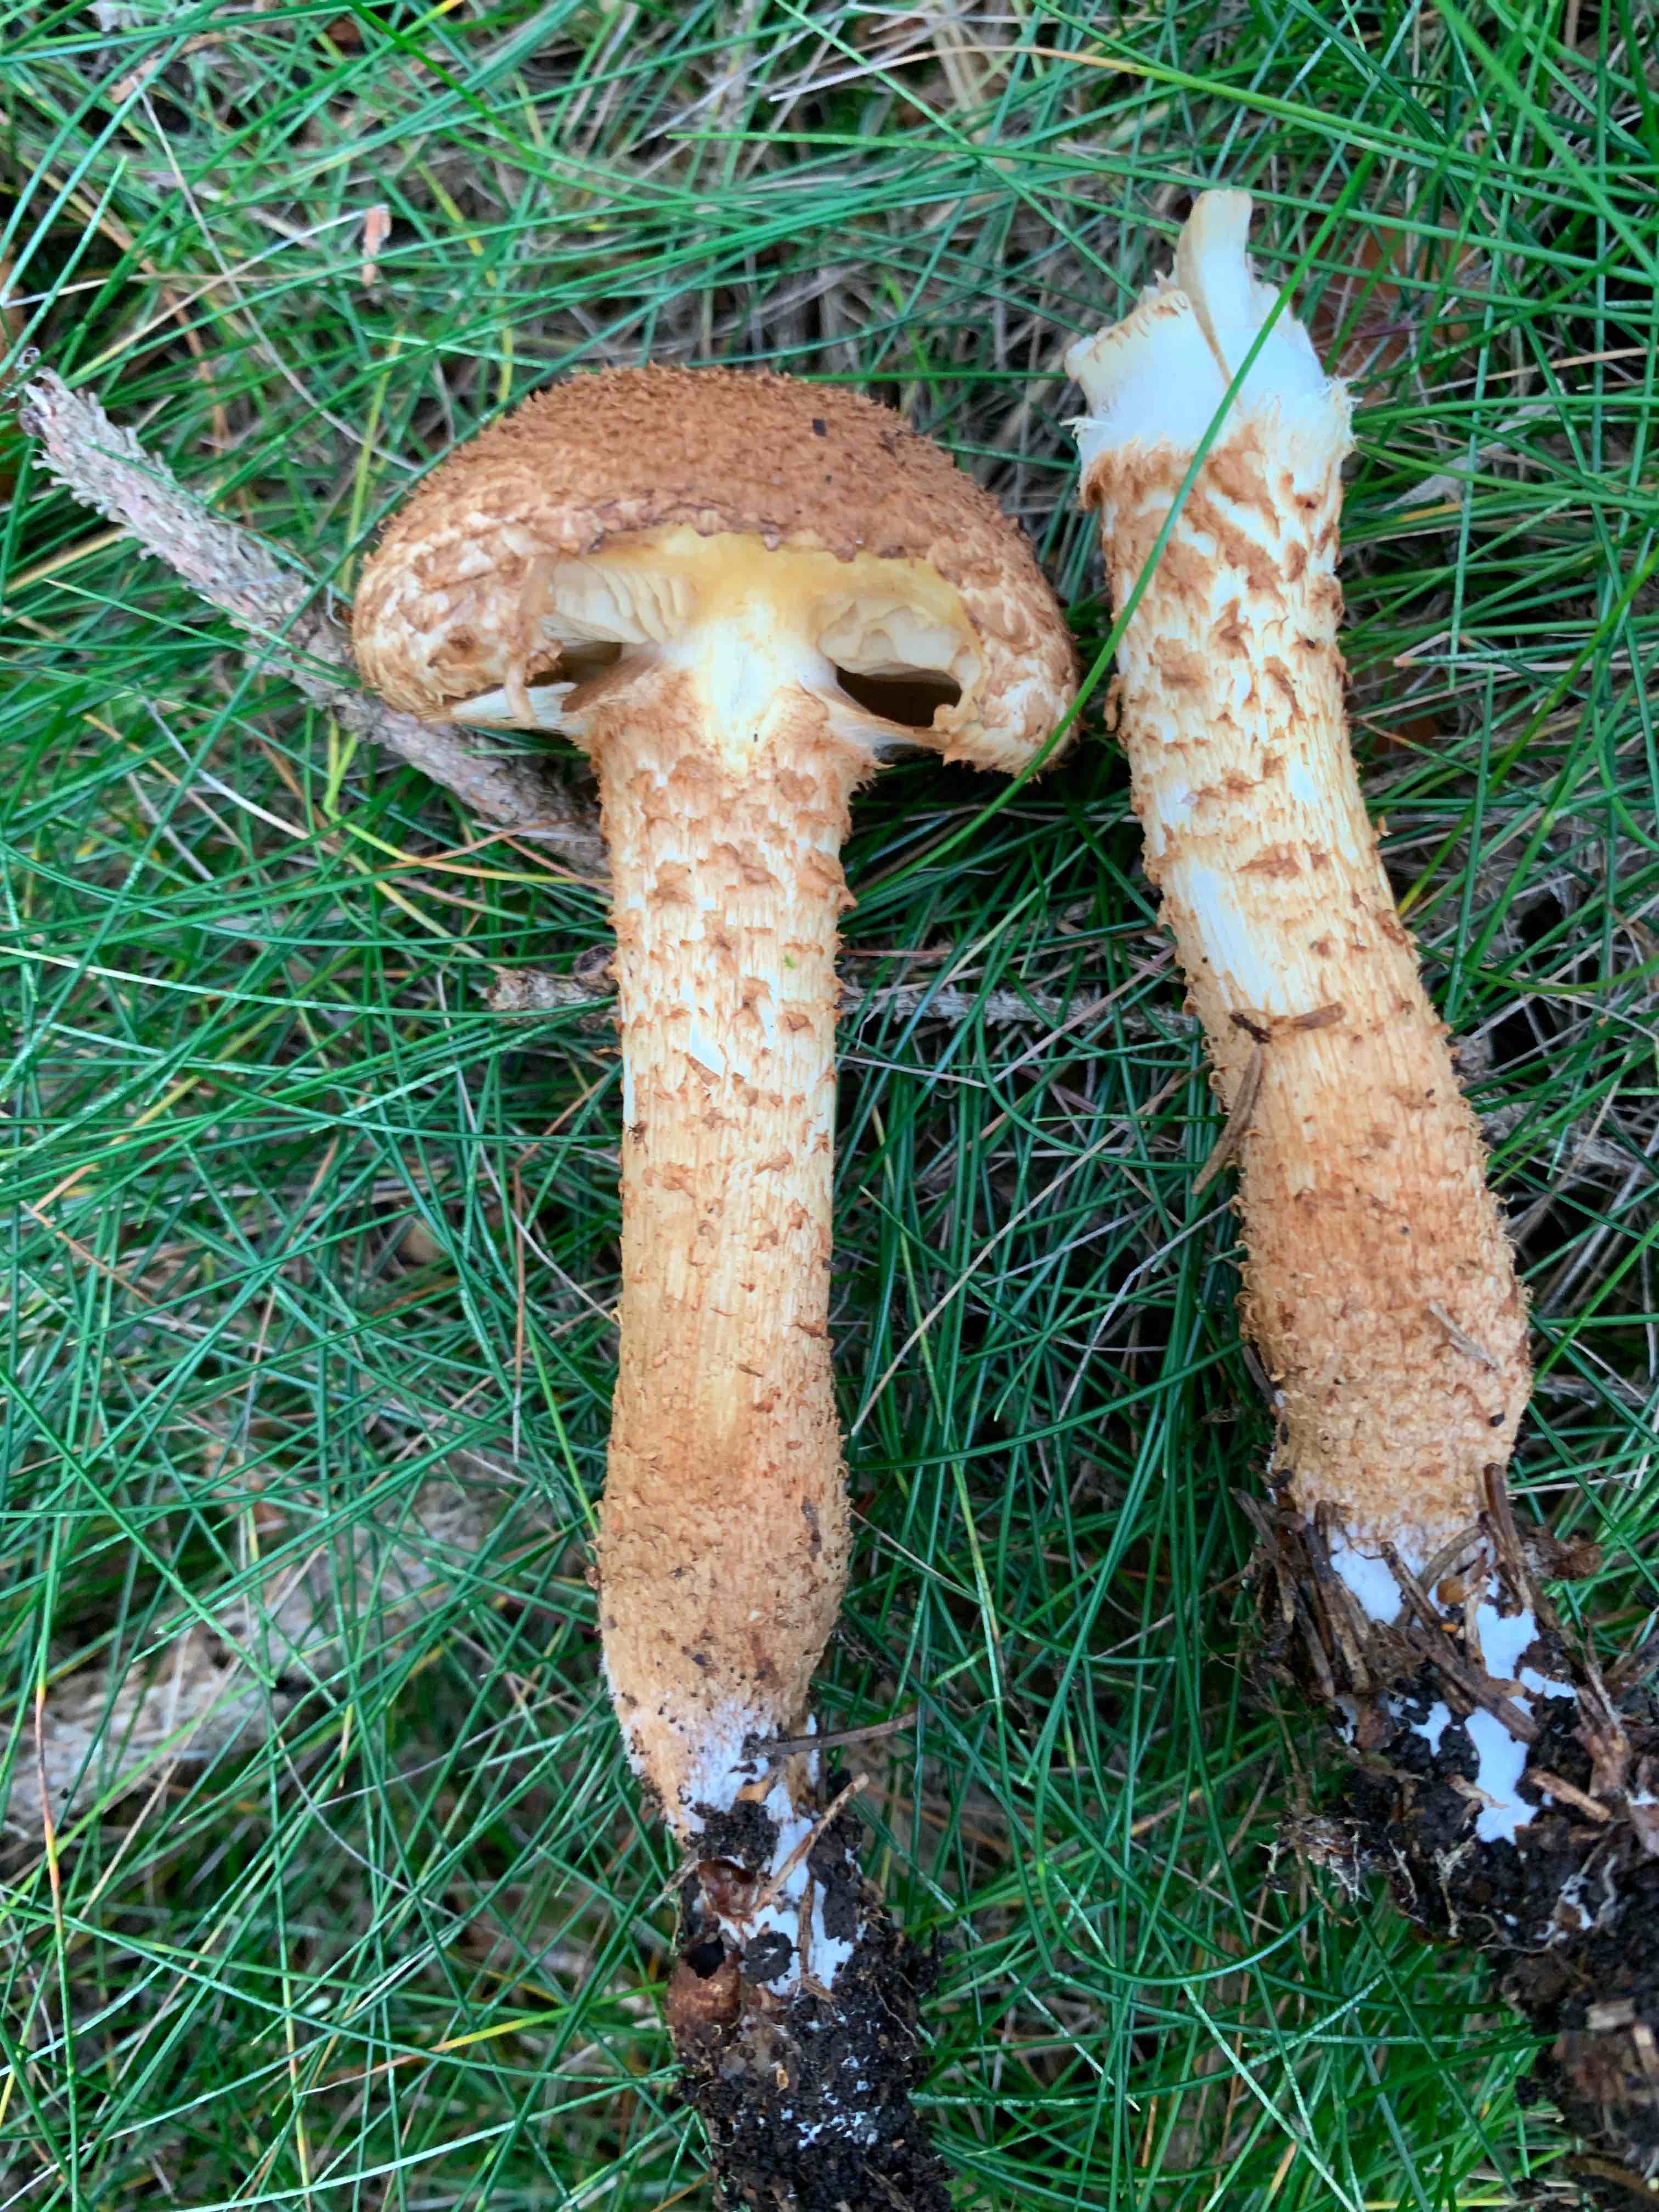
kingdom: Fungi
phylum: Basidiomycota
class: Agaricomycetes
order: Agaricales
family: Strophariaceae
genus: Pholiota
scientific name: Pholiota squarrosa
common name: krumskællet skælhat
